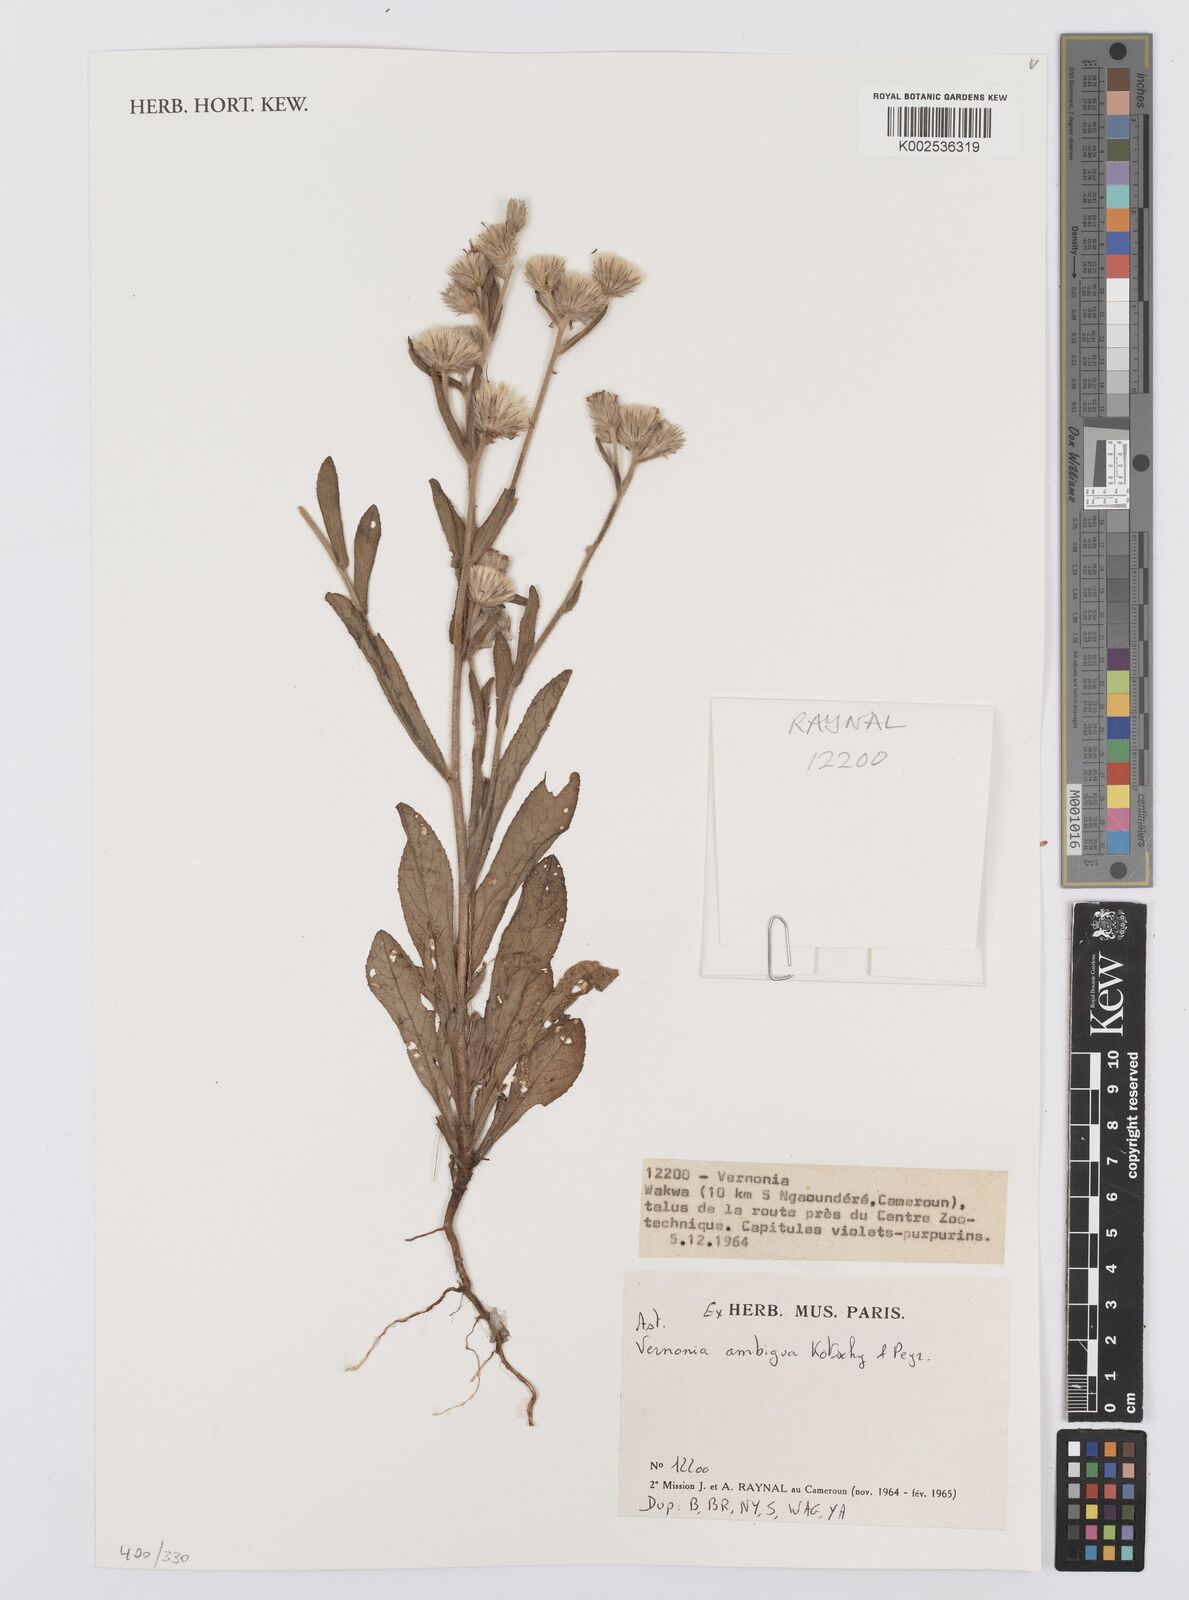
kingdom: Plantae
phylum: Tracheophyta
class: Magnoliopsida
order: Asterales
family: Asteraceae
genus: Vernoniastrum
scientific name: Vernoniastrum ambiguum
